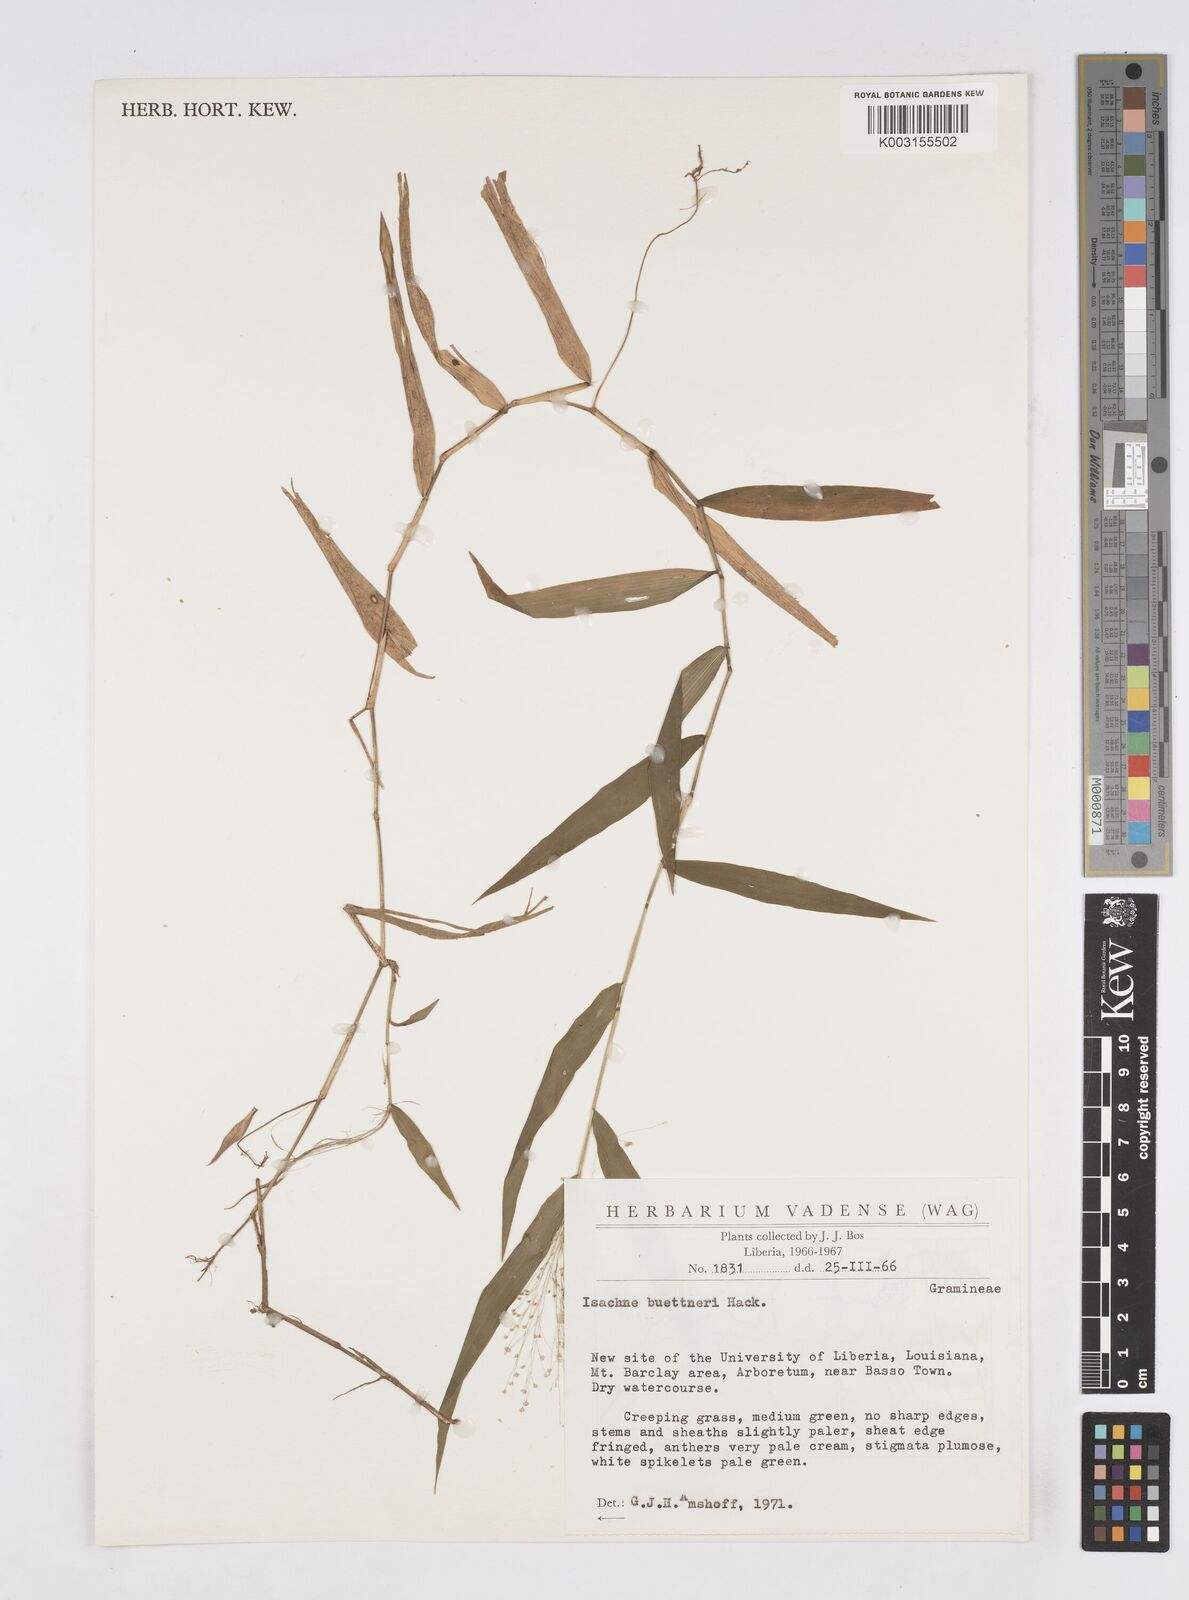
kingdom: Plantae
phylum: Tracheophyta
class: Liliopsida
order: Poales
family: Poaceae
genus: Isachne
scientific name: Isachne albens
